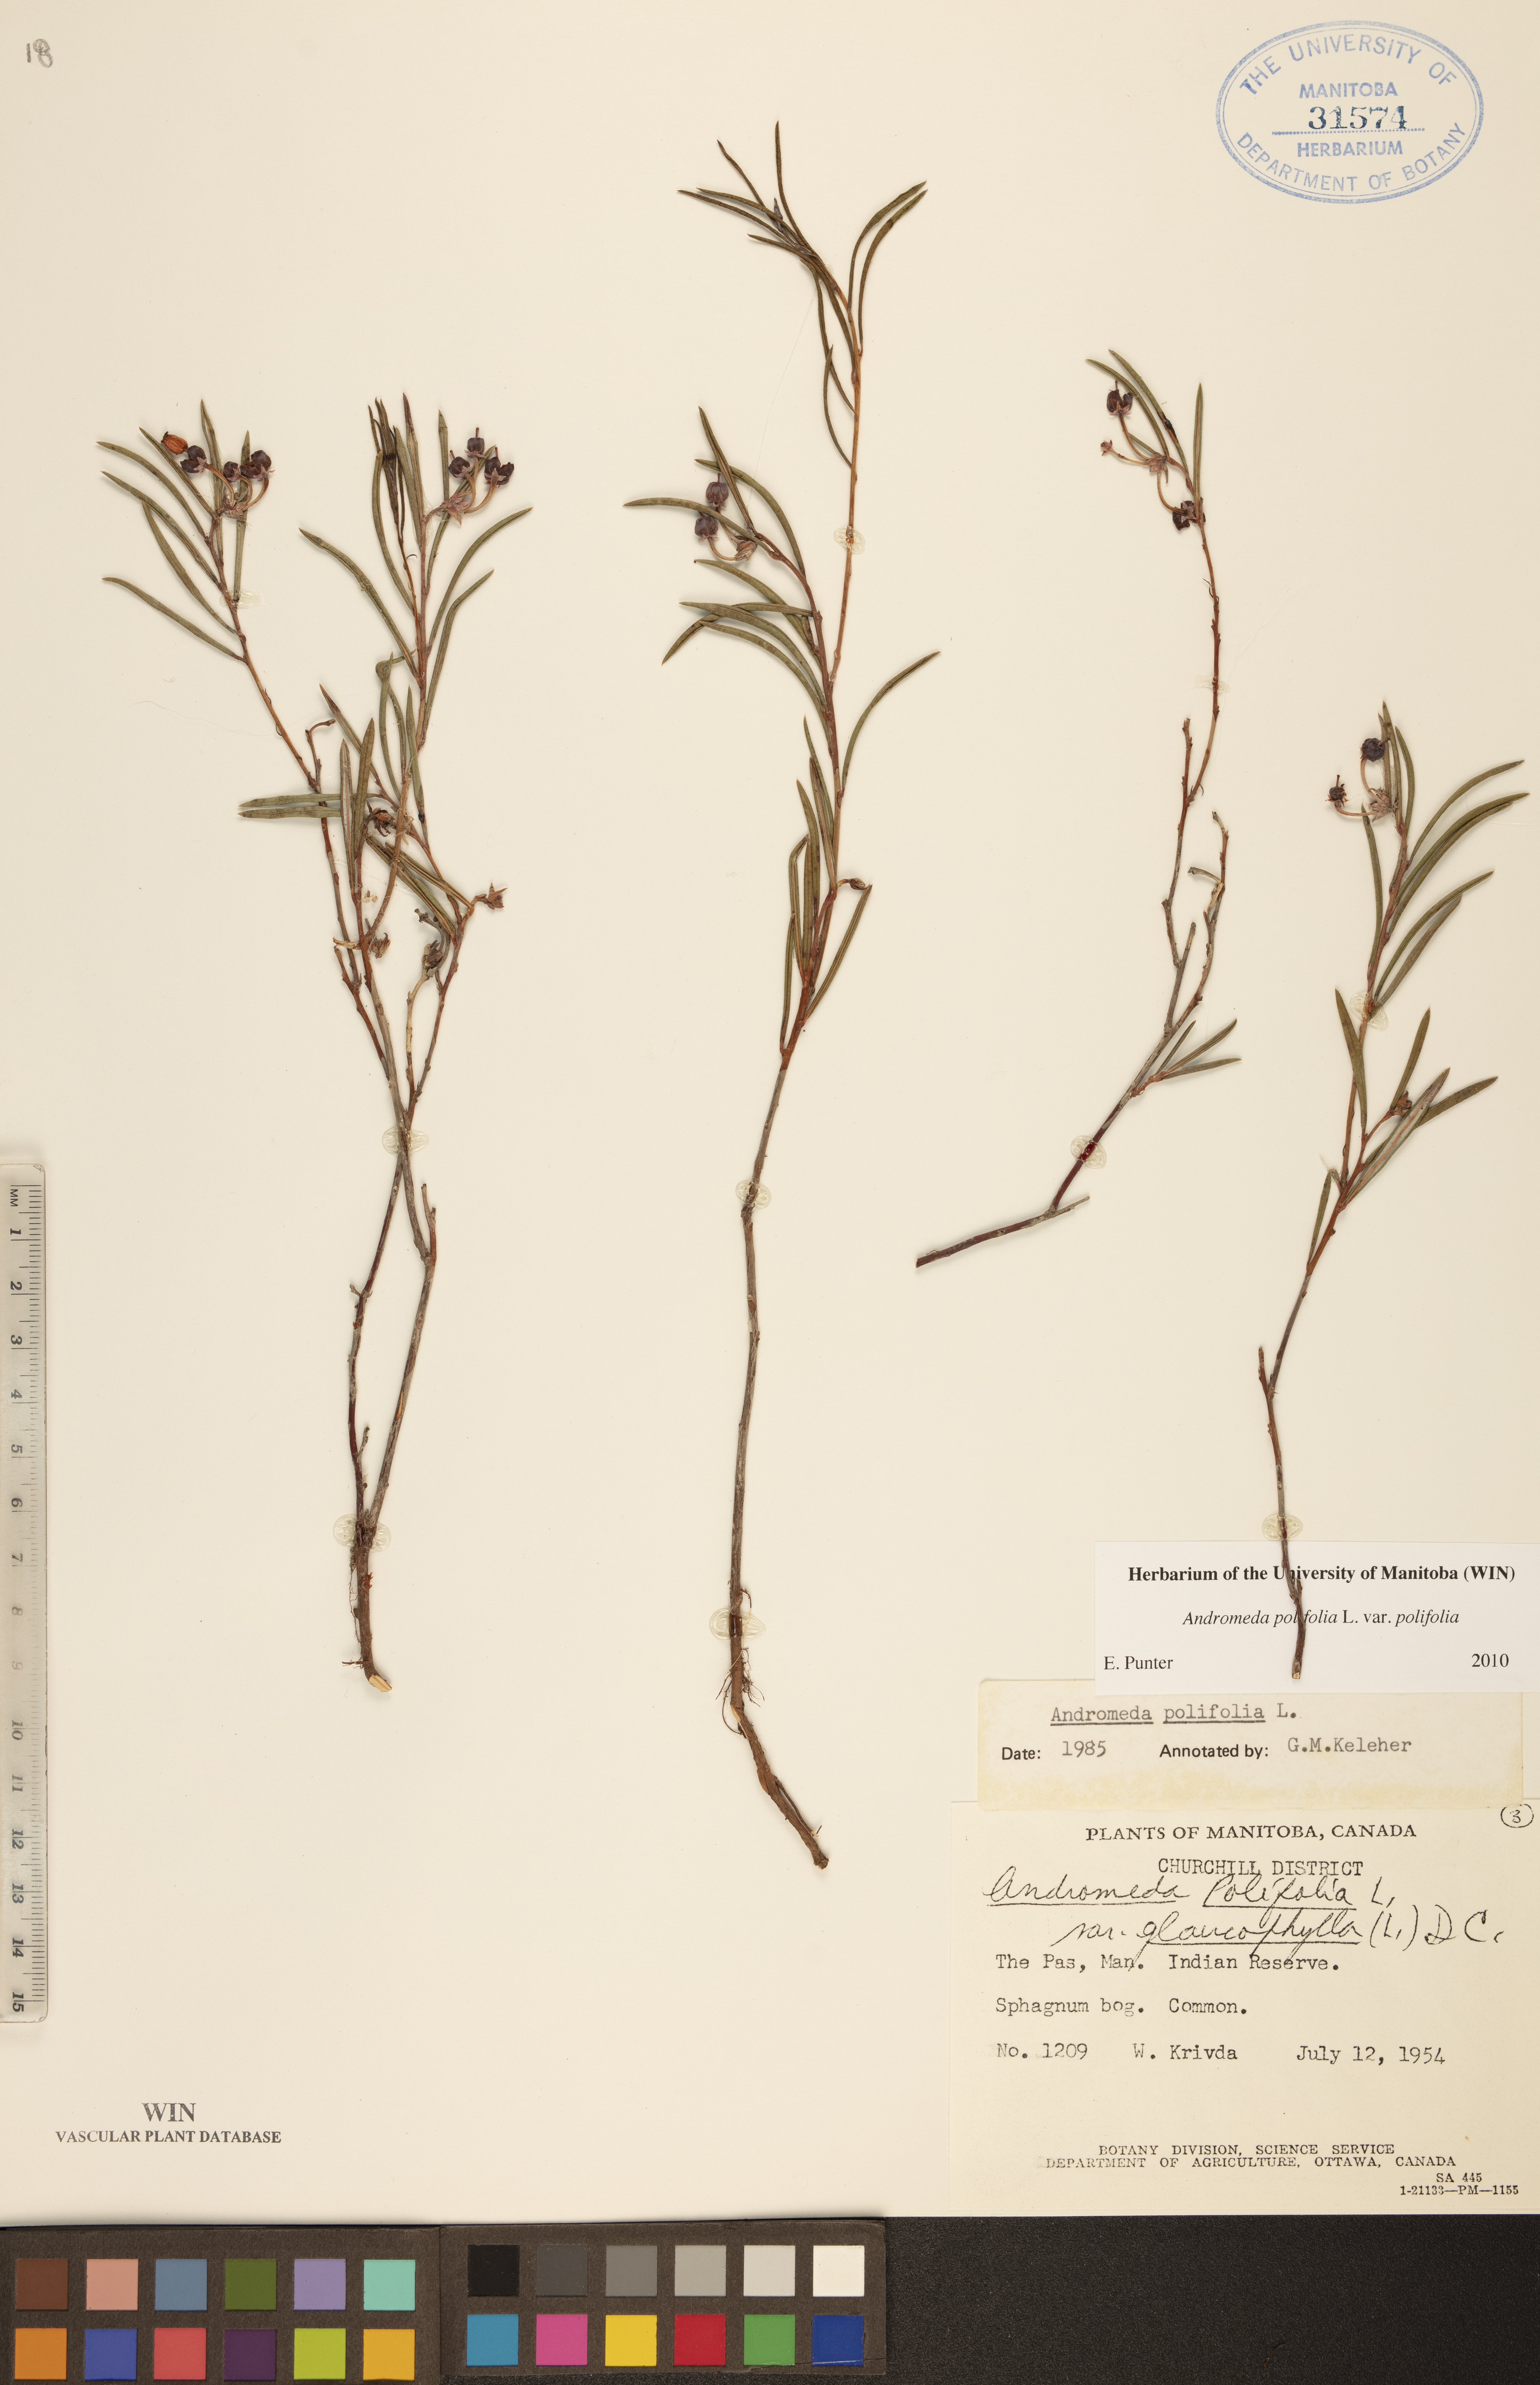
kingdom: Plantae
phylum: Tracheophyta
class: Magnoliopsida
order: Ericales
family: Ericaceae
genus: Andromeda
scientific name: Andromeda polifolia
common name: Bog-rosemary
